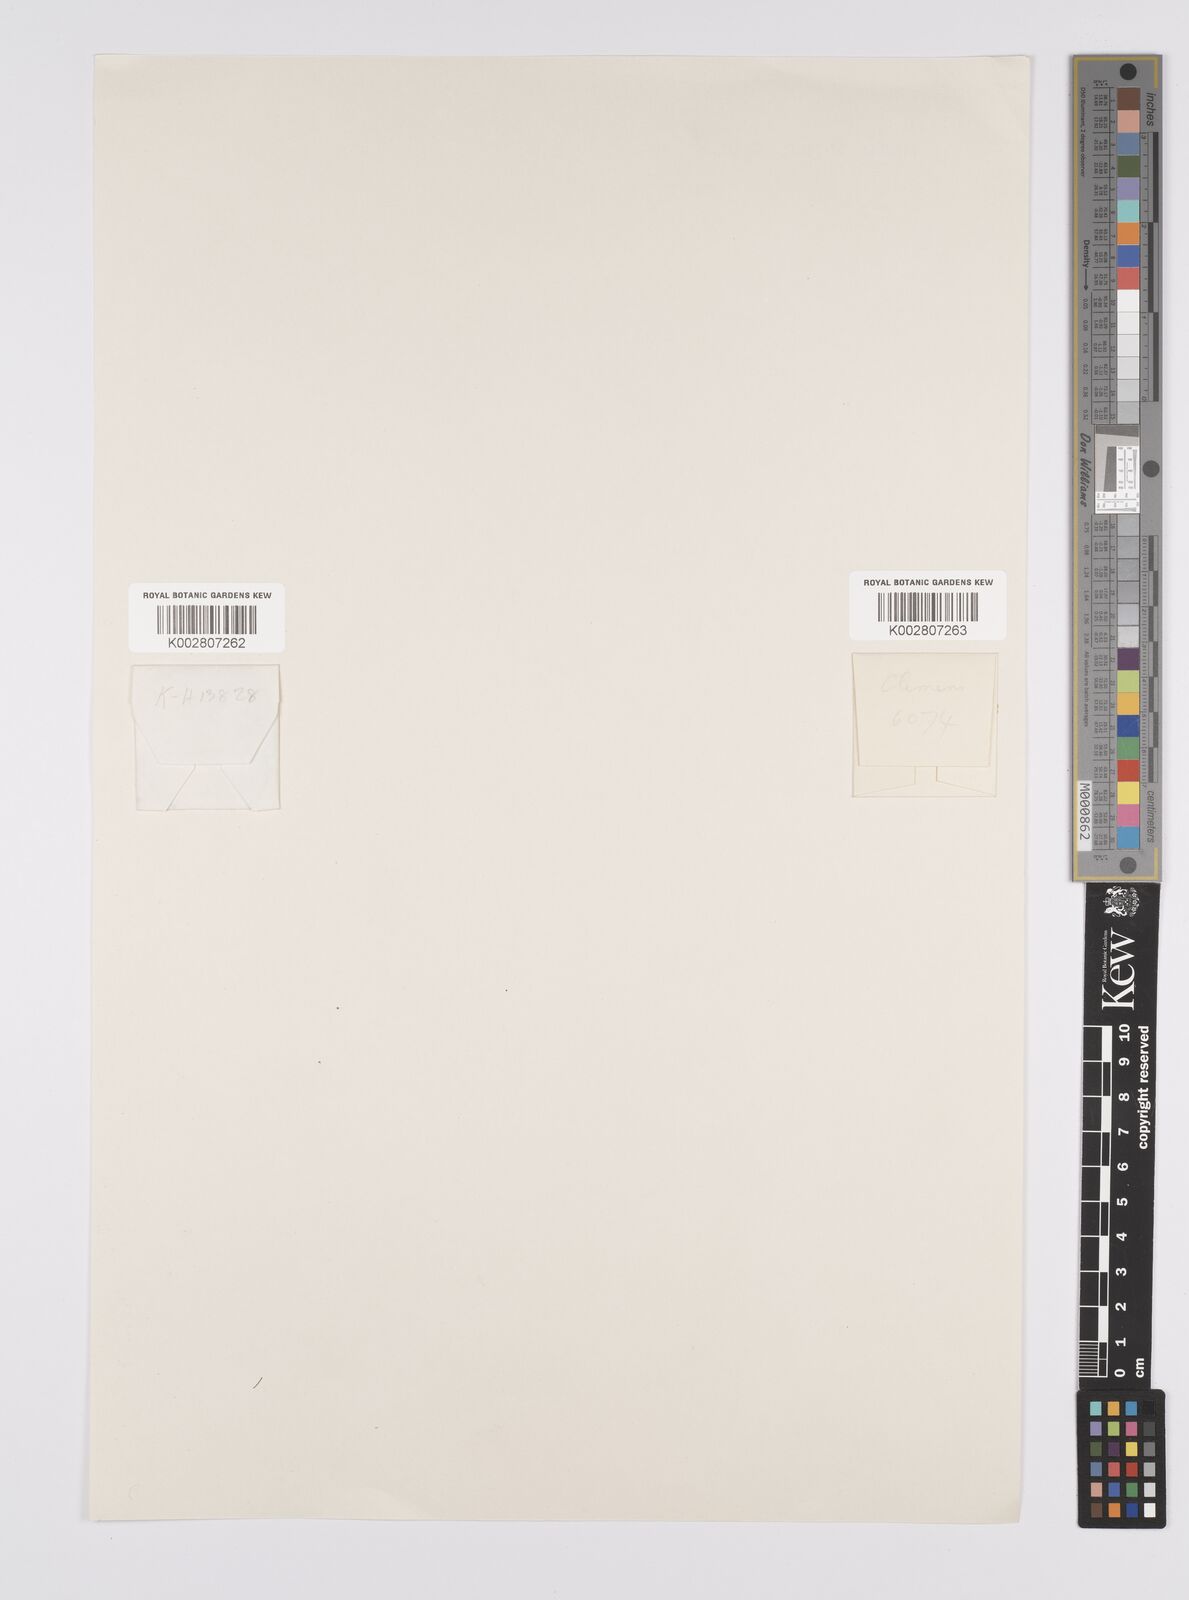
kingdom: Plantae
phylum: Tracheophyta
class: Liliopsida
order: Poales
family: Cyperaceae
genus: Carex
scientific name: Carex
